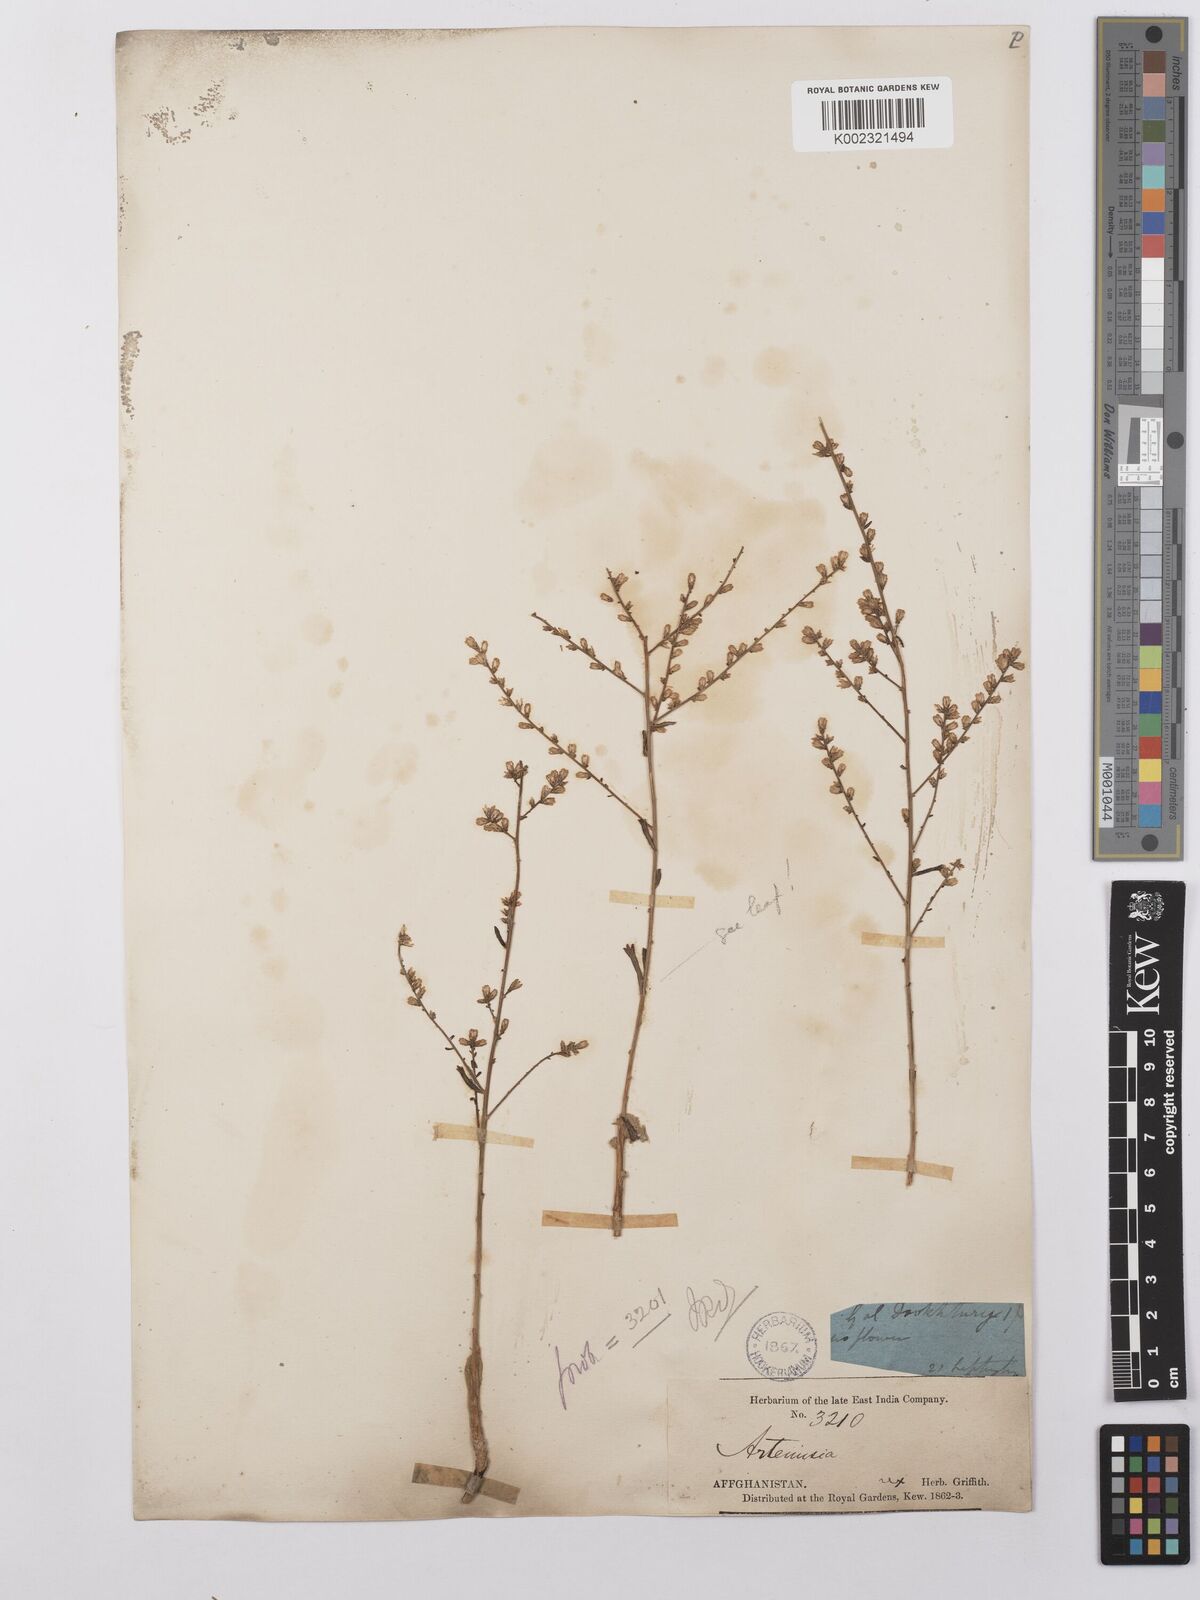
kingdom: Plantae
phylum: Tracheophyta
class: Magnoliopsida
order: Asterales
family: Asteraceae
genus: Artemisia
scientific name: Artemisia cina
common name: Levant wormseed
